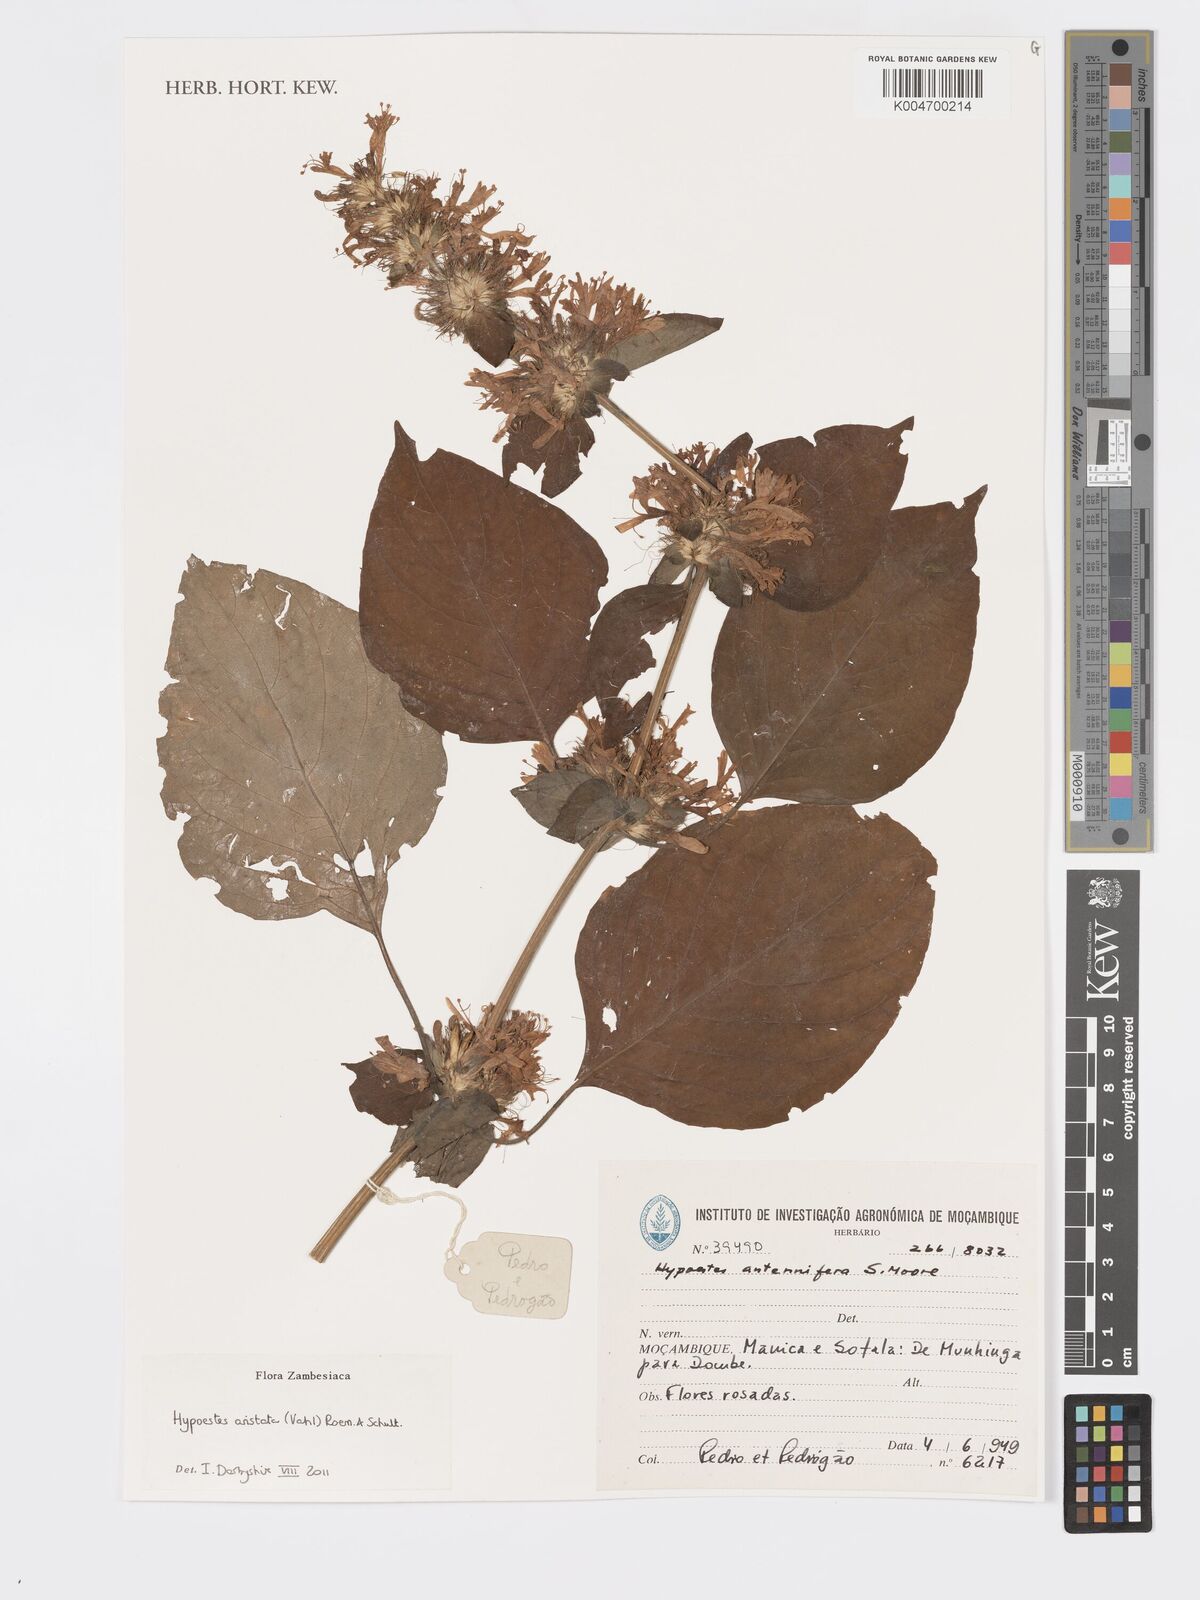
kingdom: Plantae
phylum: Tracheophyta
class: Magnoliopsida
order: Lamiales
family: Acanthaceae
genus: Hypoestes
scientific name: Hypoestes aristata
